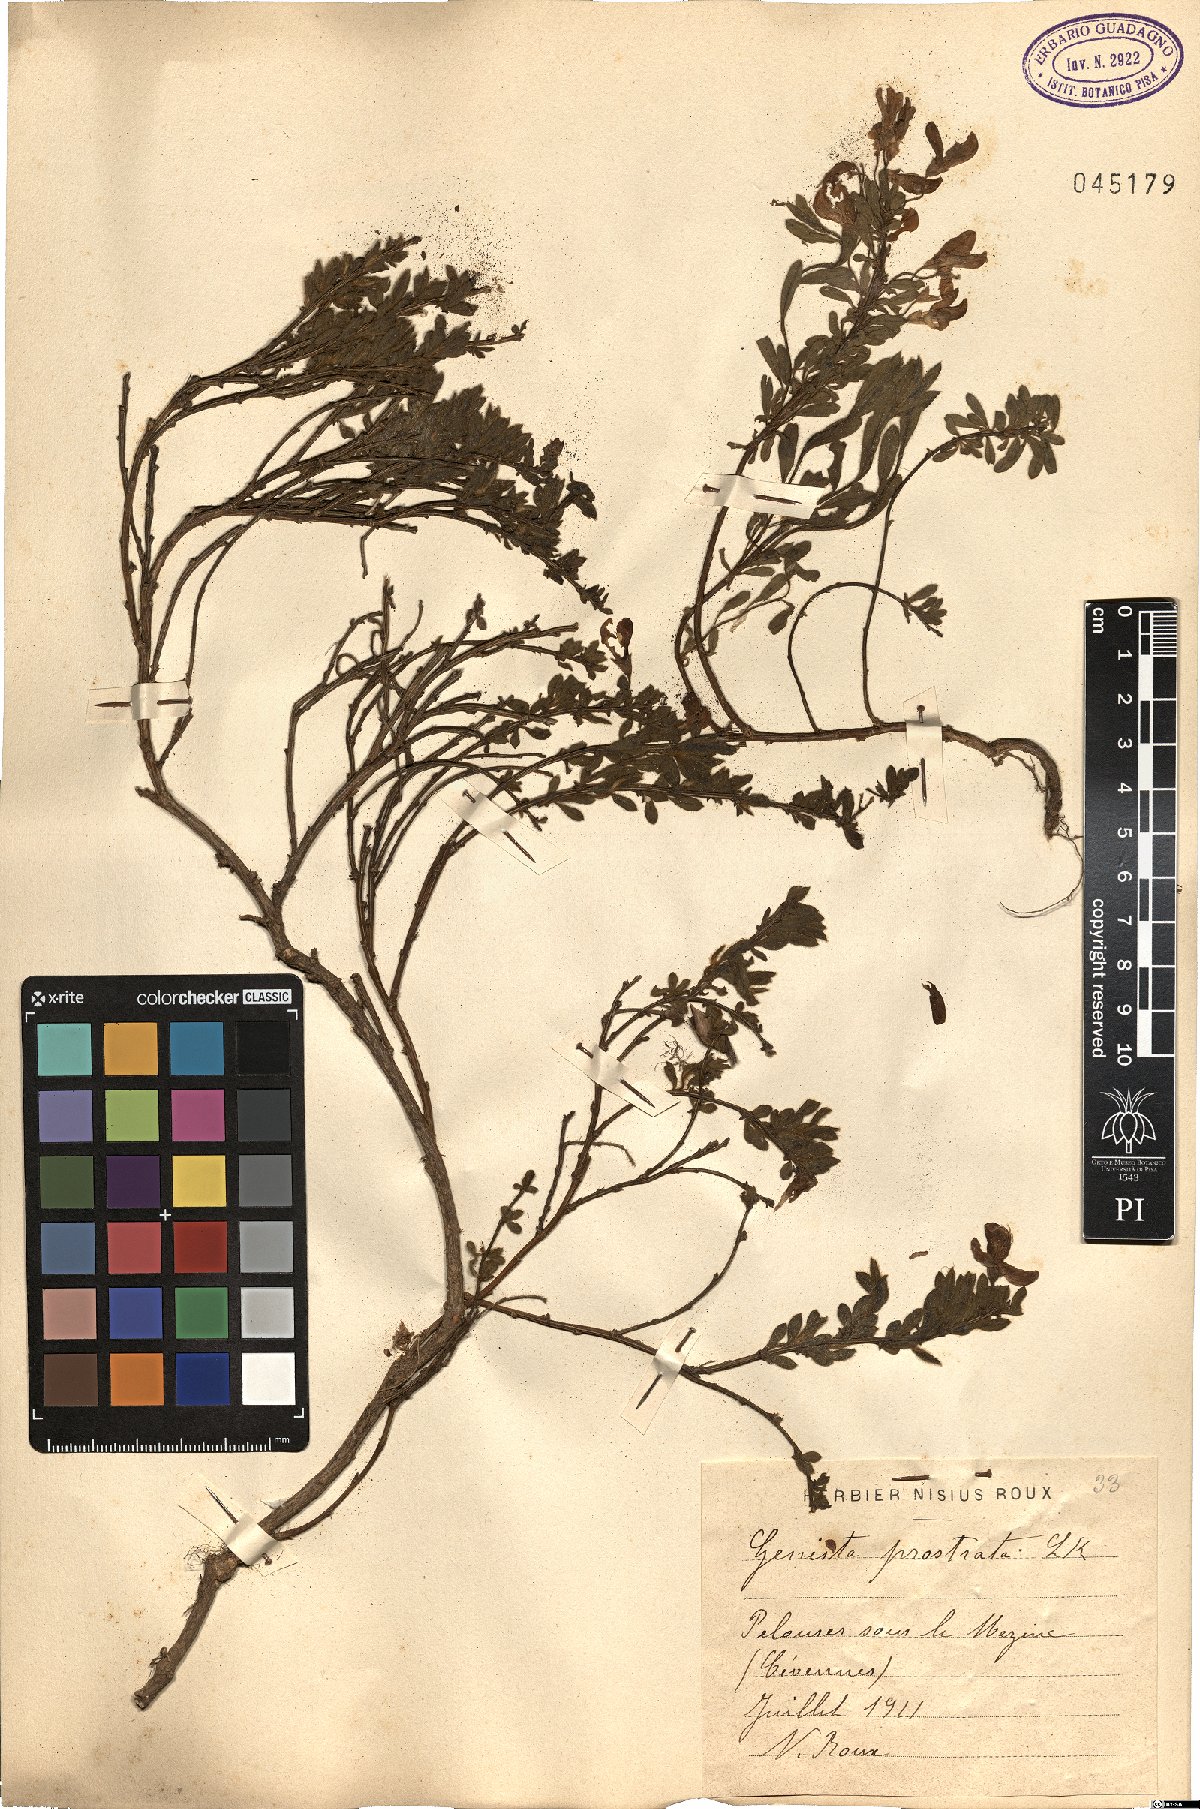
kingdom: Plantae
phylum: Tracheophyta
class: Magnoliopsida
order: Fabales
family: Fabaceae
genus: Cytisus
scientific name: Cytisus decumbens
